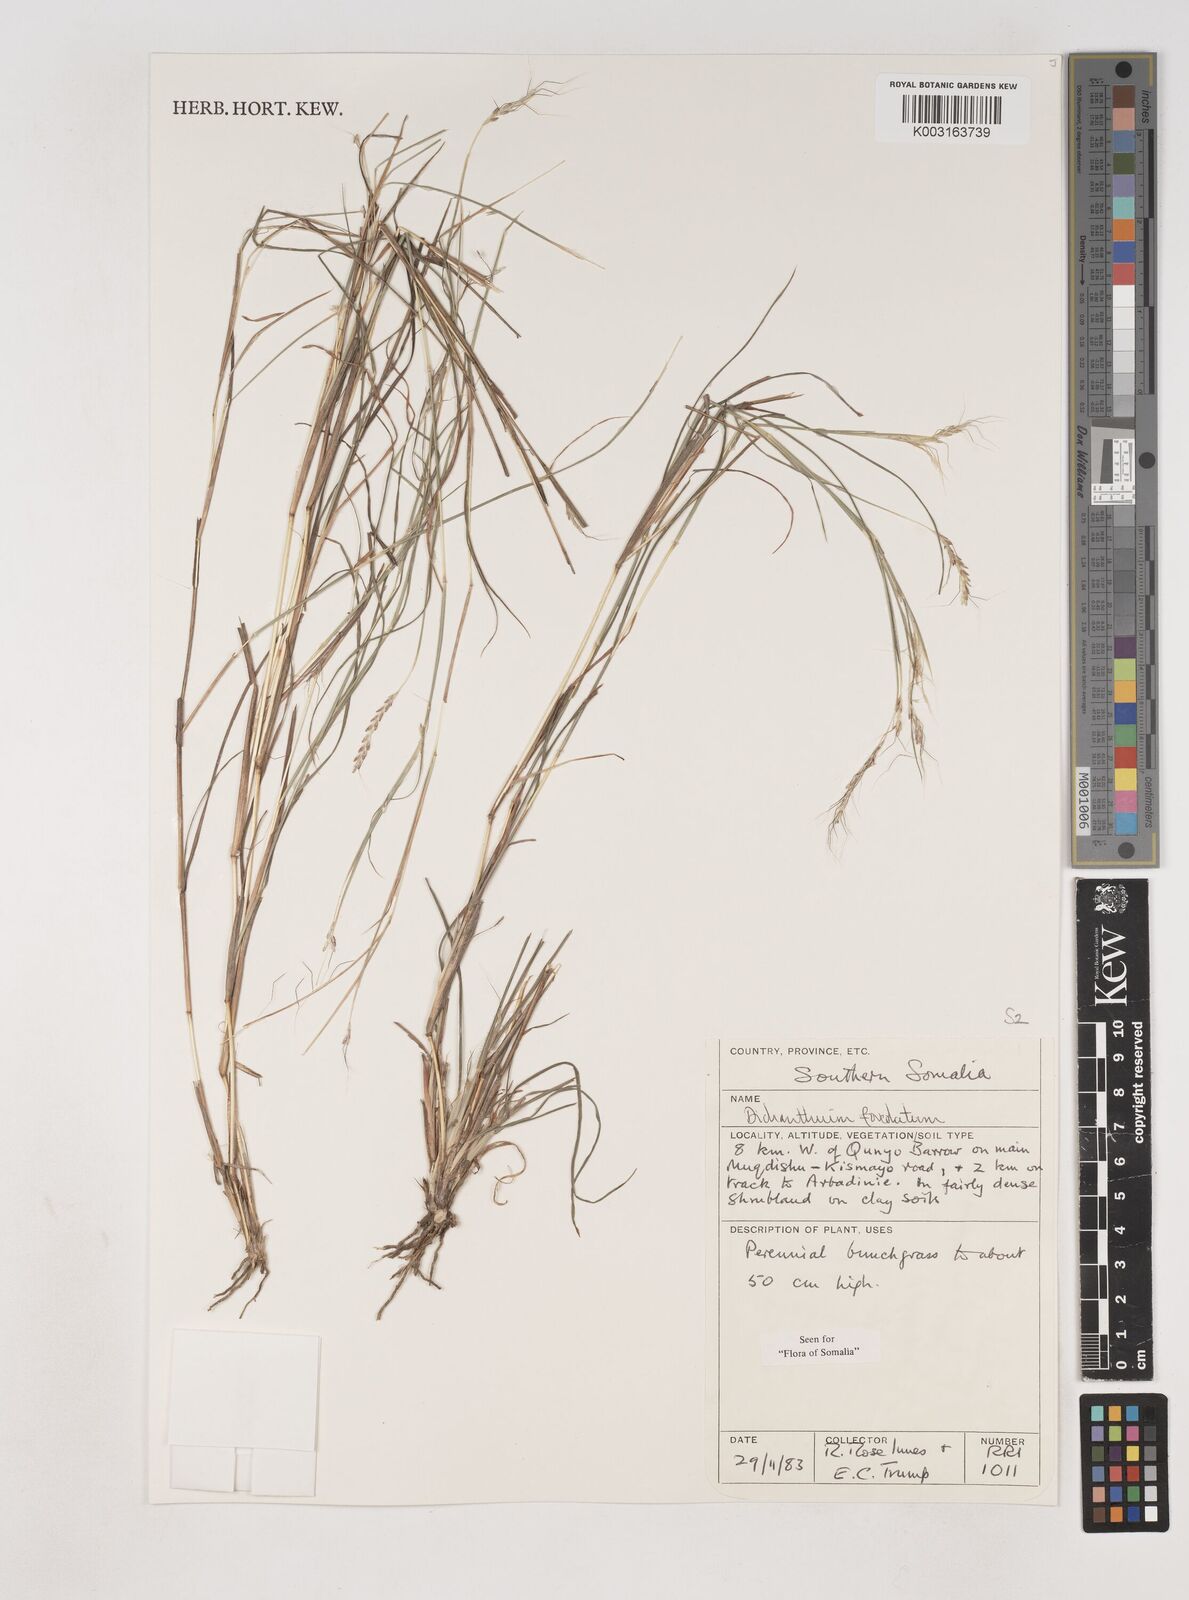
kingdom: Plantae
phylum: Tracheophyta
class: Liliopsida
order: Poales
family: Poaceae
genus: Dichanthium
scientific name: Dichanthium foveolatum
